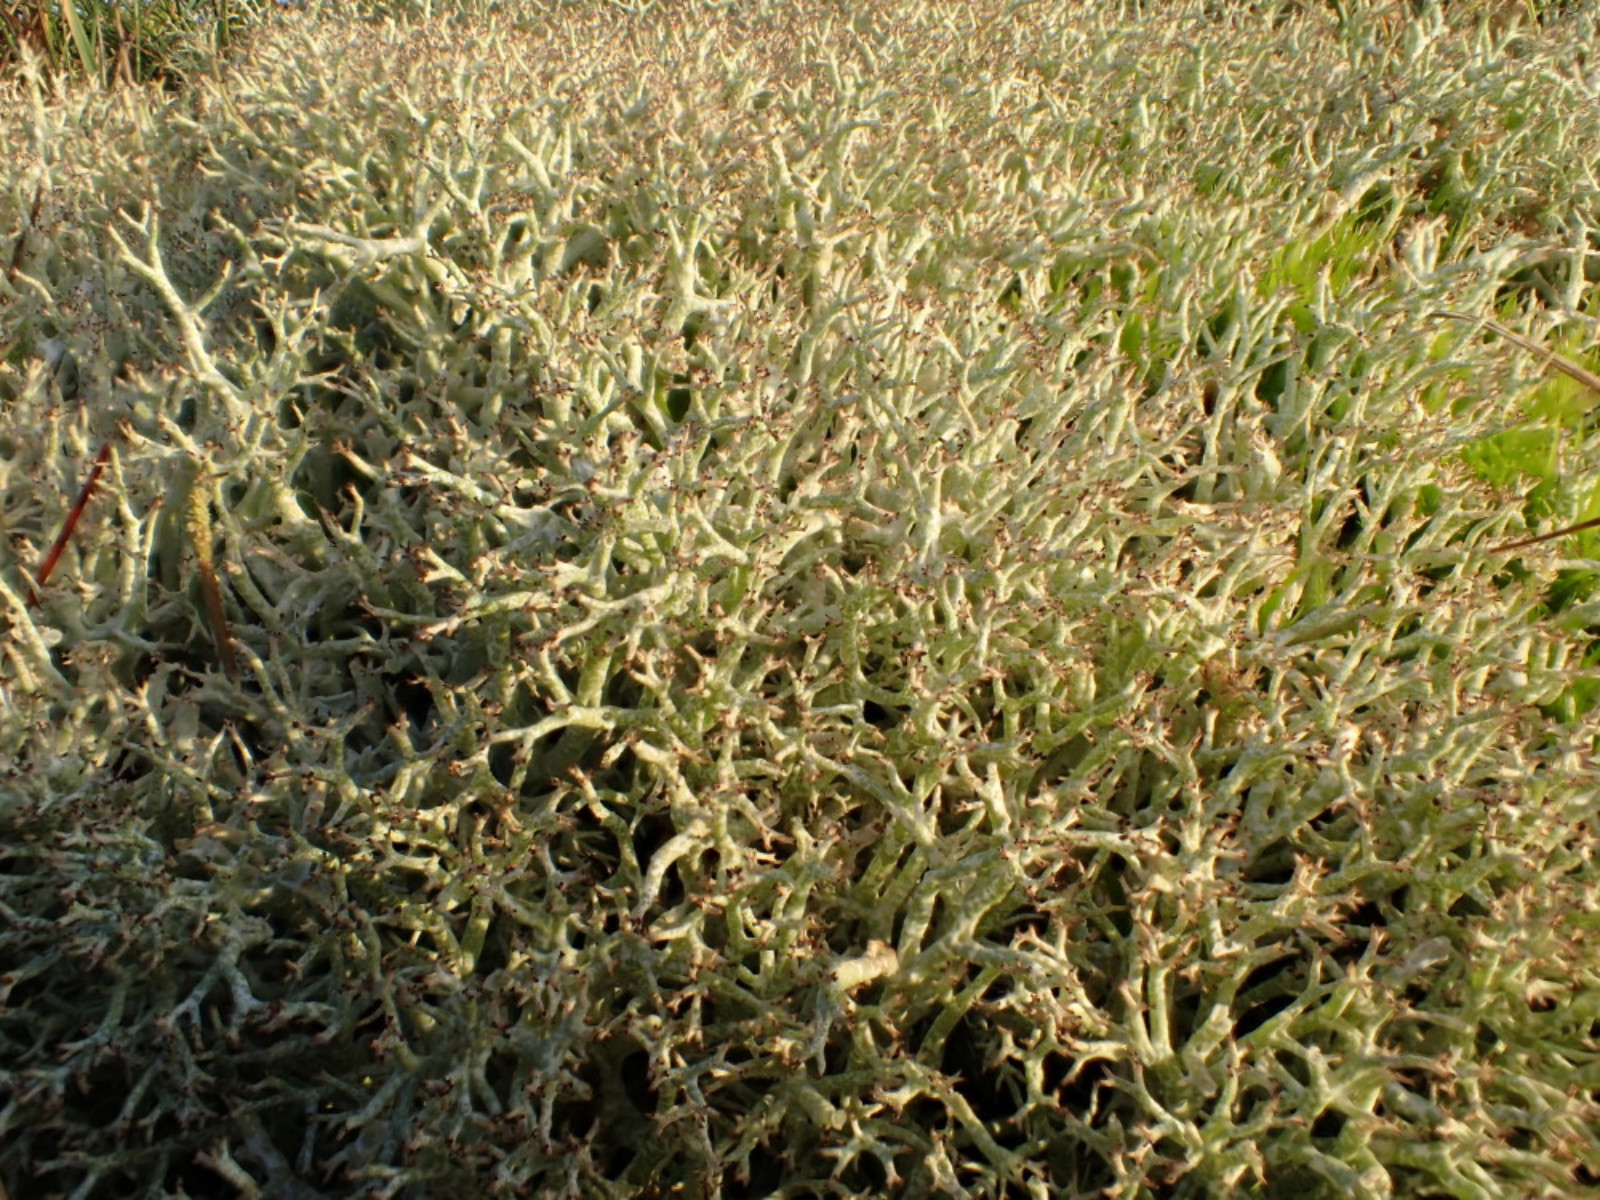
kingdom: Fungi
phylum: Ascomycota
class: Lecanoromycetes
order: Lecanorales
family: Cladoniaceae
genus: Cladonia
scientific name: Cladonia rangiformis
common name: spættet bægerlav
